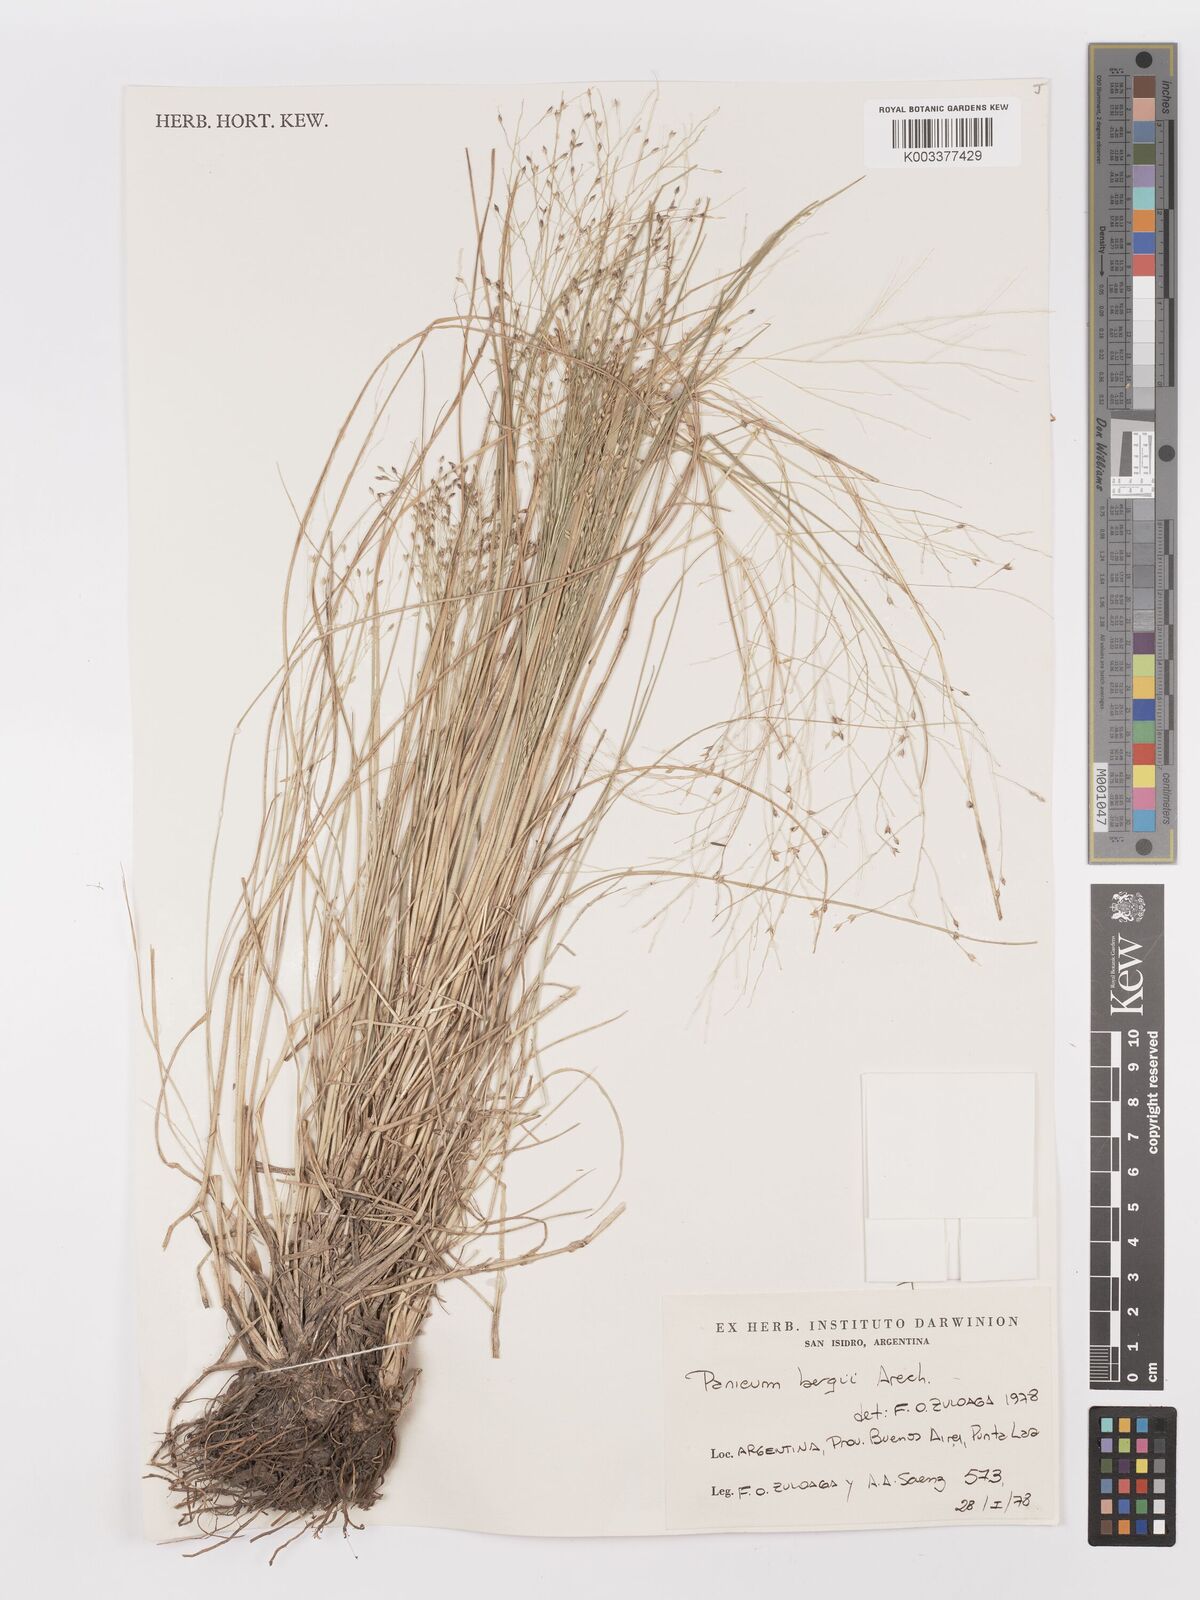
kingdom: Plantae
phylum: Tracheophyta
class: Liliopsida
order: Poales
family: Poaceae
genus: Panicum
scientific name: Panicum bergii
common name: Berg's panicgrass
